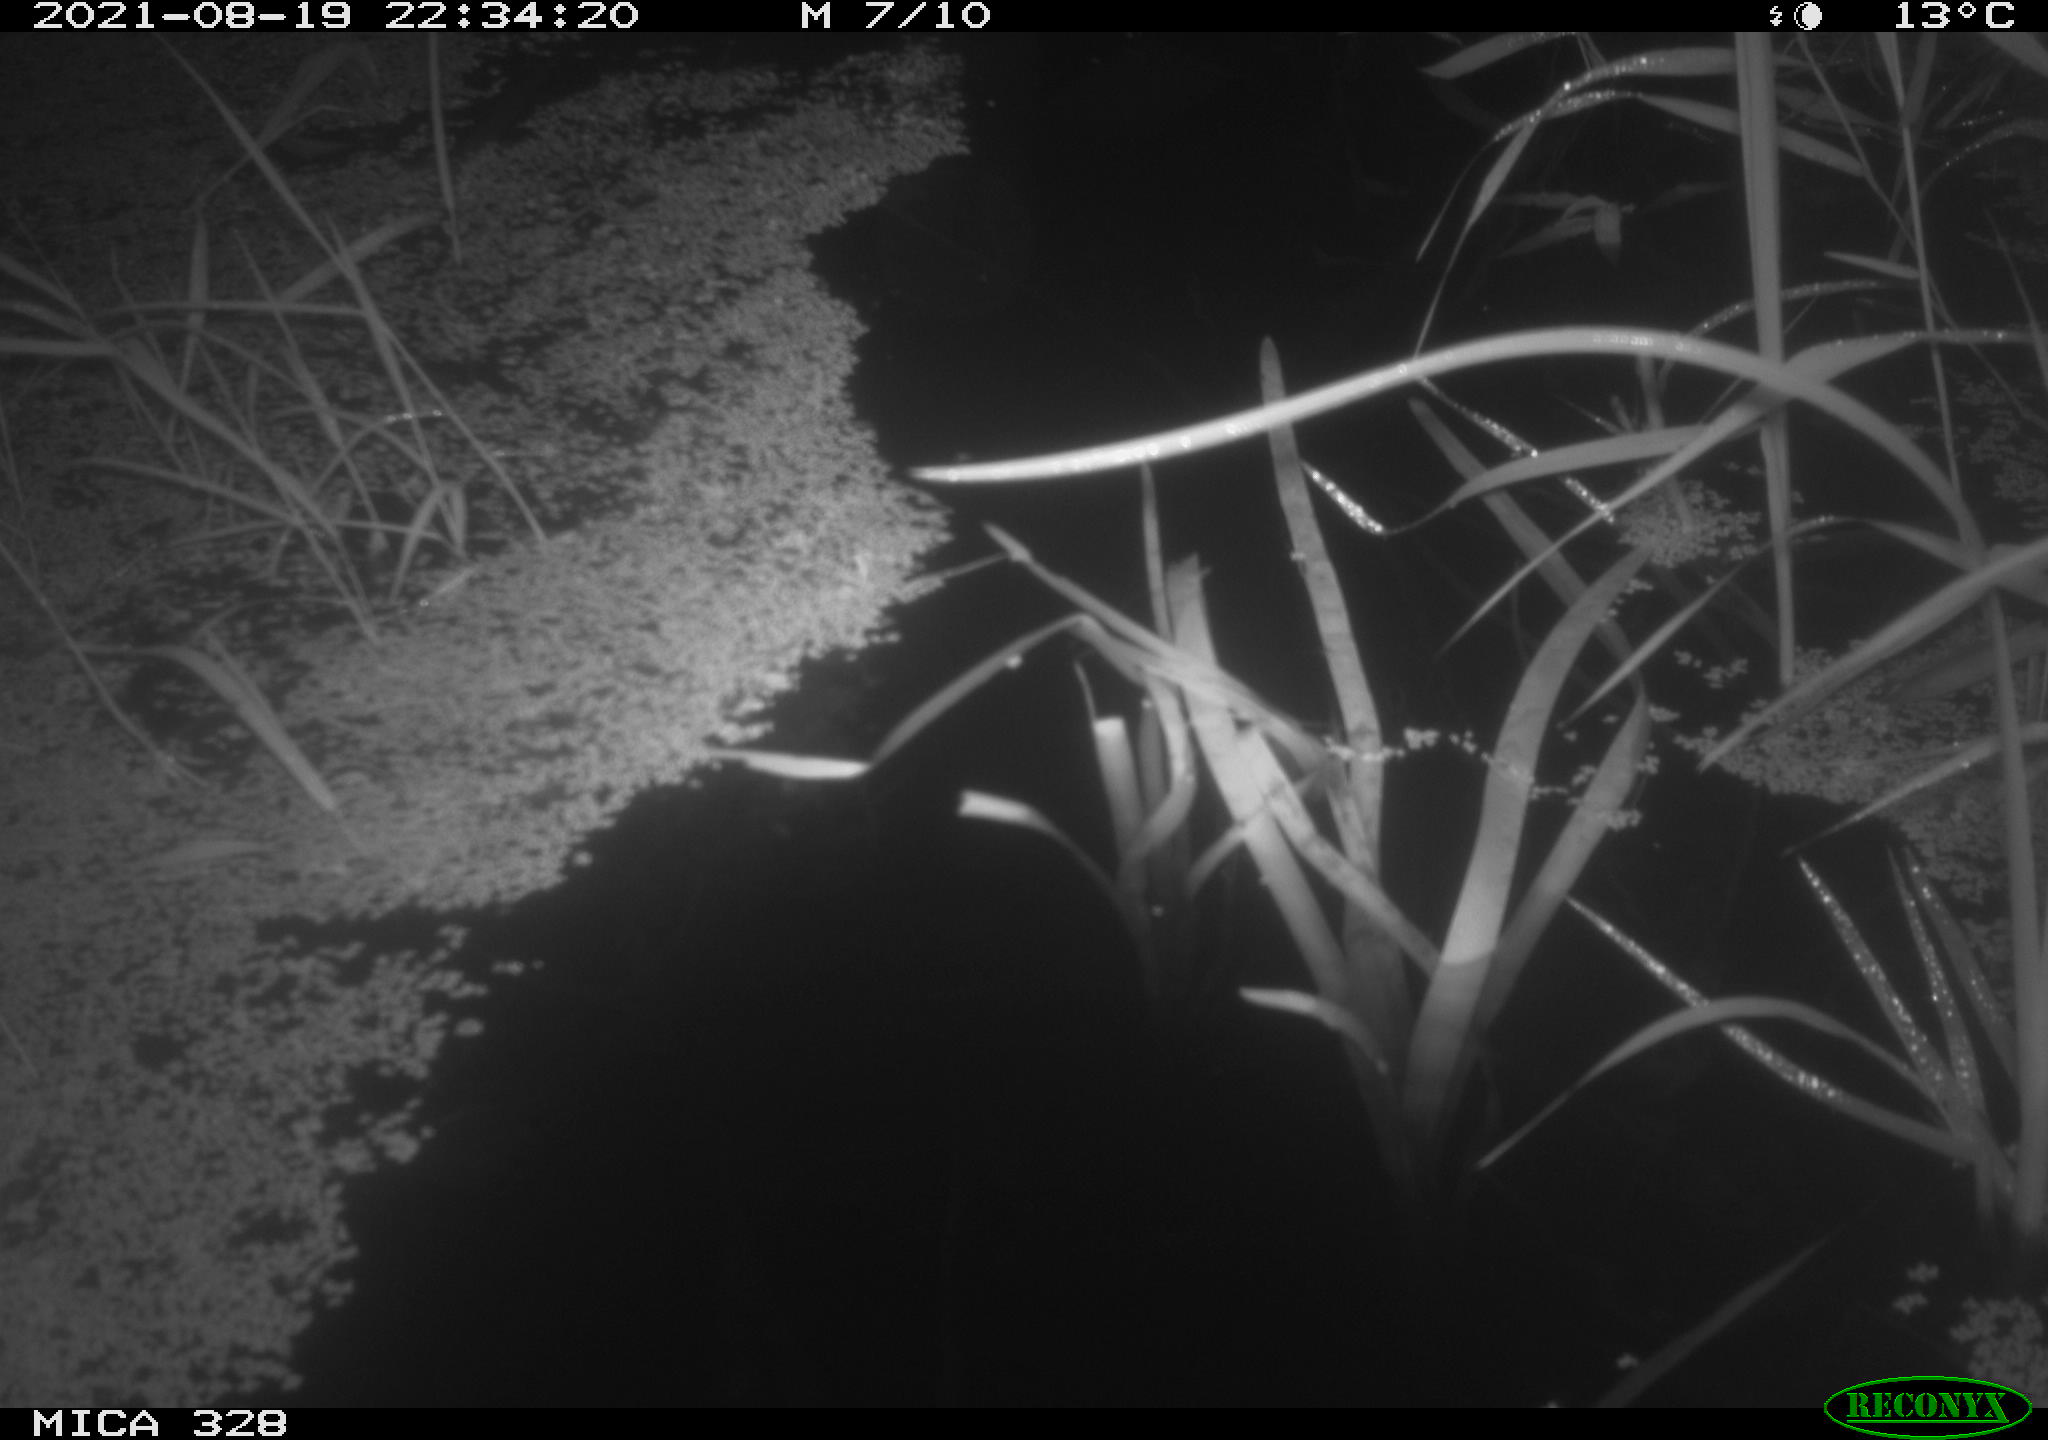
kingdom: Animalia
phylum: Chordata
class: Mammalia
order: Rodentia
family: Cricetidae
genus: Ondatra
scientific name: Ondatra zibethicus
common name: Muskrat
